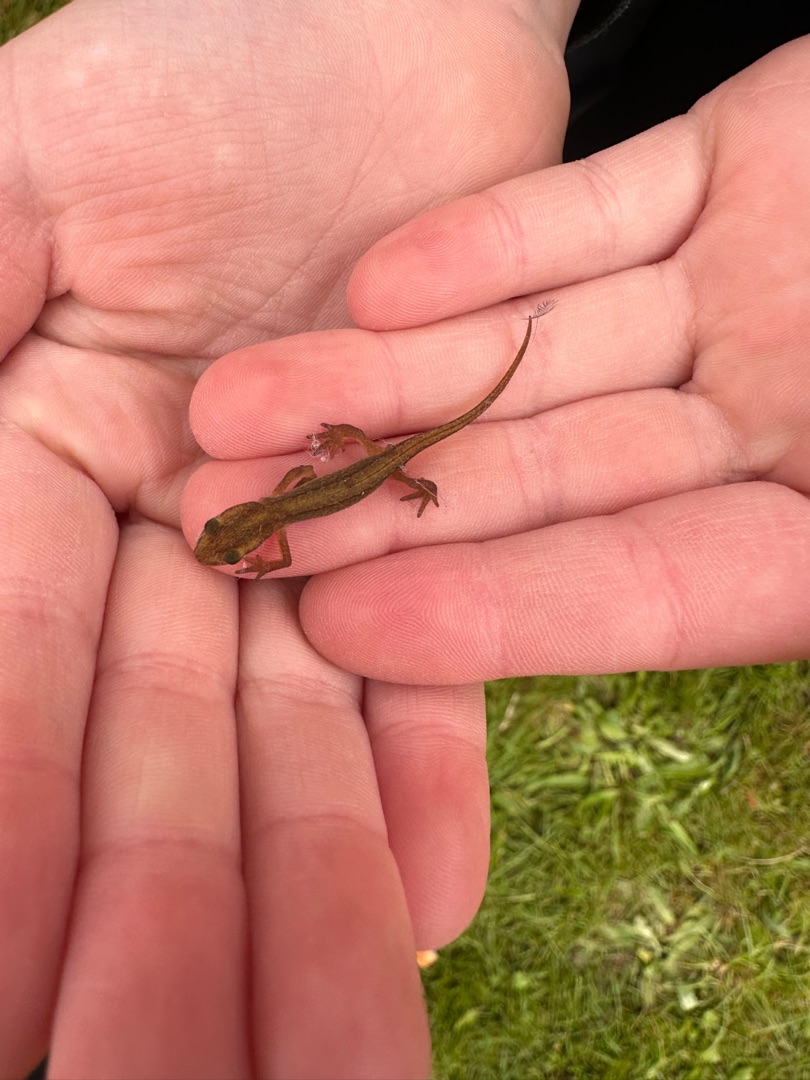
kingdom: Animalia
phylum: Chordata
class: Amphibia
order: Caudata
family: Salamandridae
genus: Lissotriton
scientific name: Lissotriton vulgaris
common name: Lille vandsalamander
